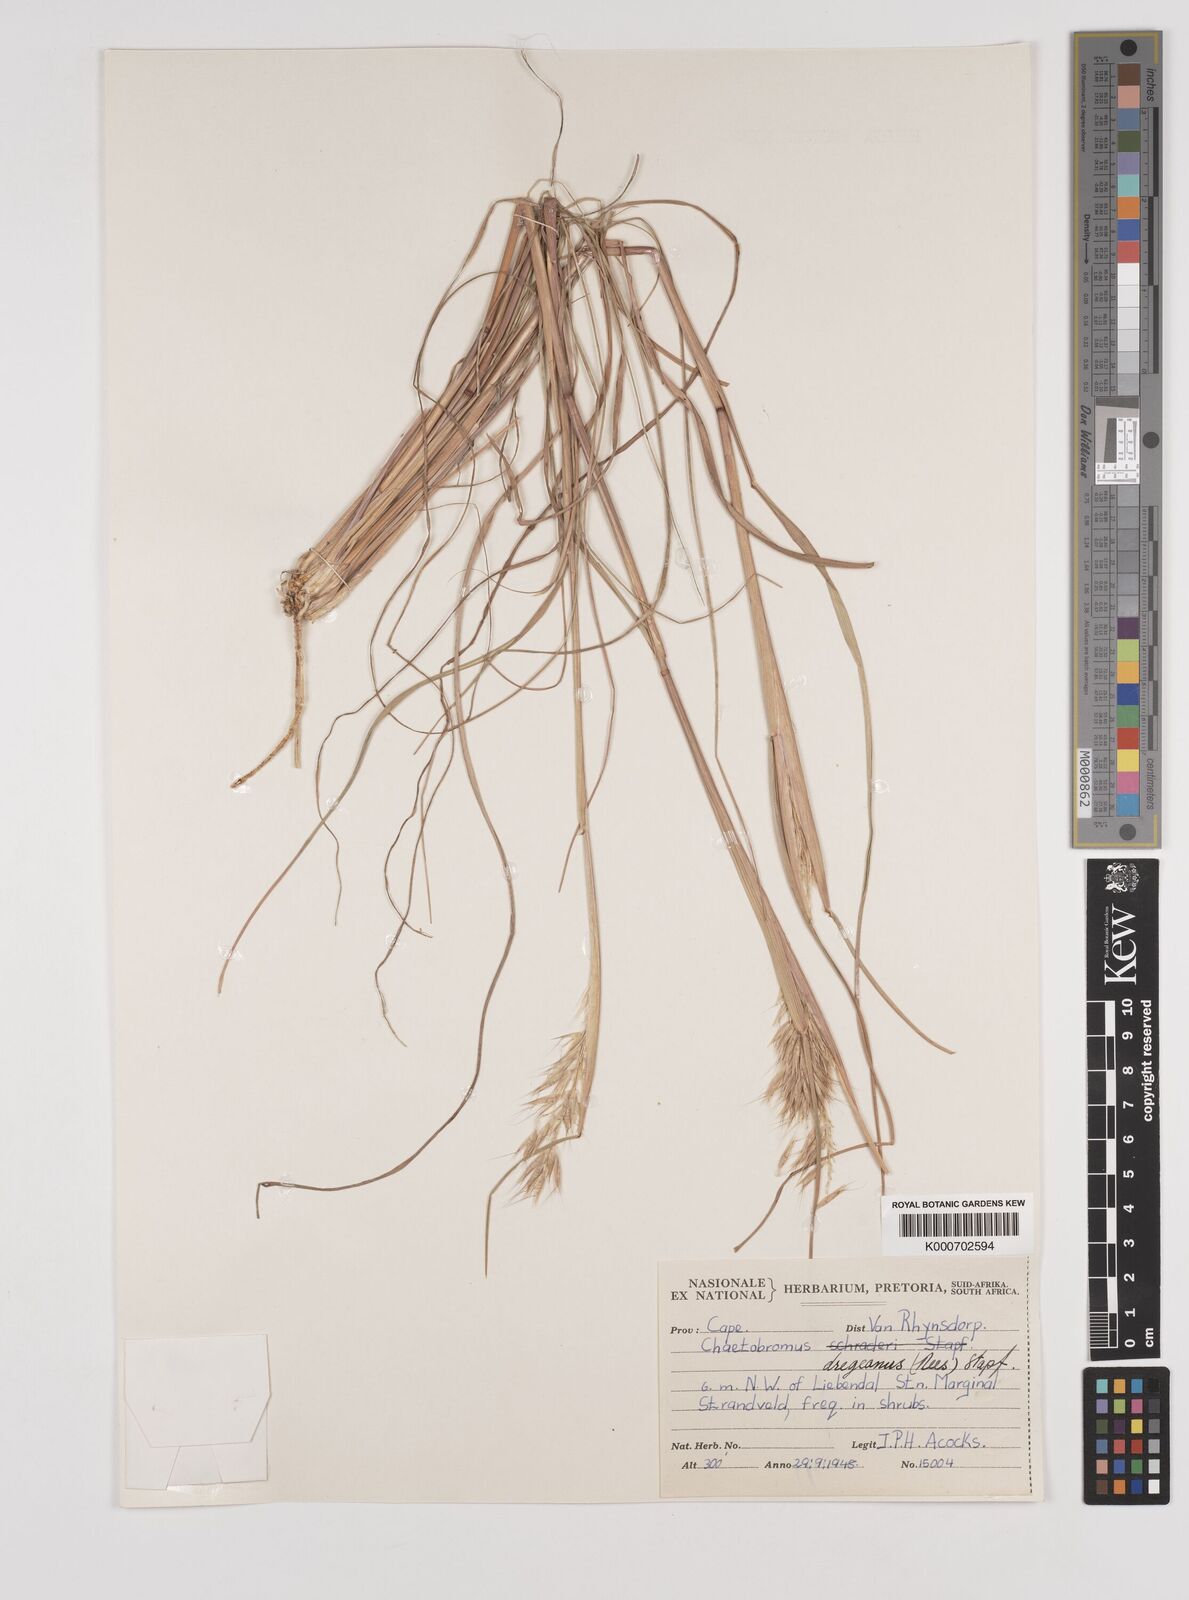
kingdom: Plantae
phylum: Tracheophyta
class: Liliopsida
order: Poales
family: Poaceae
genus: Chaetobromus
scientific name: Chaetobromus involucratus
